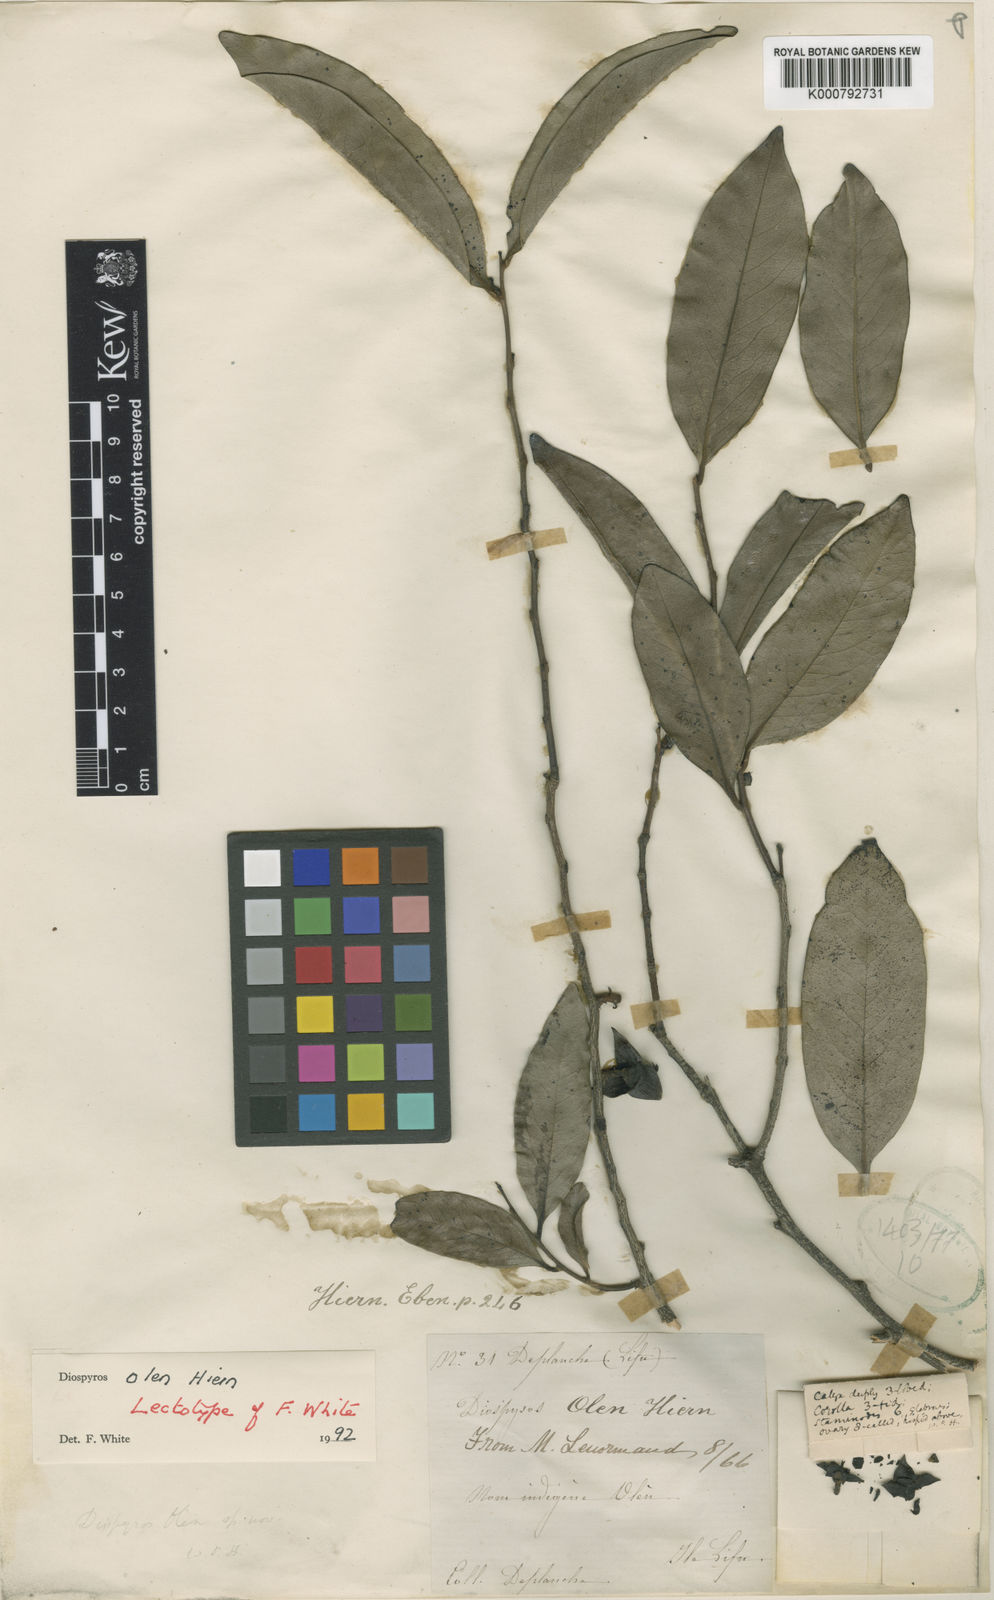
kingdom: Plantae
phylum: Tracheophyta
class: Magnoliopsida
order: Ericales
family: Ebenaceae
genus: Diospyros
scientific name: Diospyros samoensis
